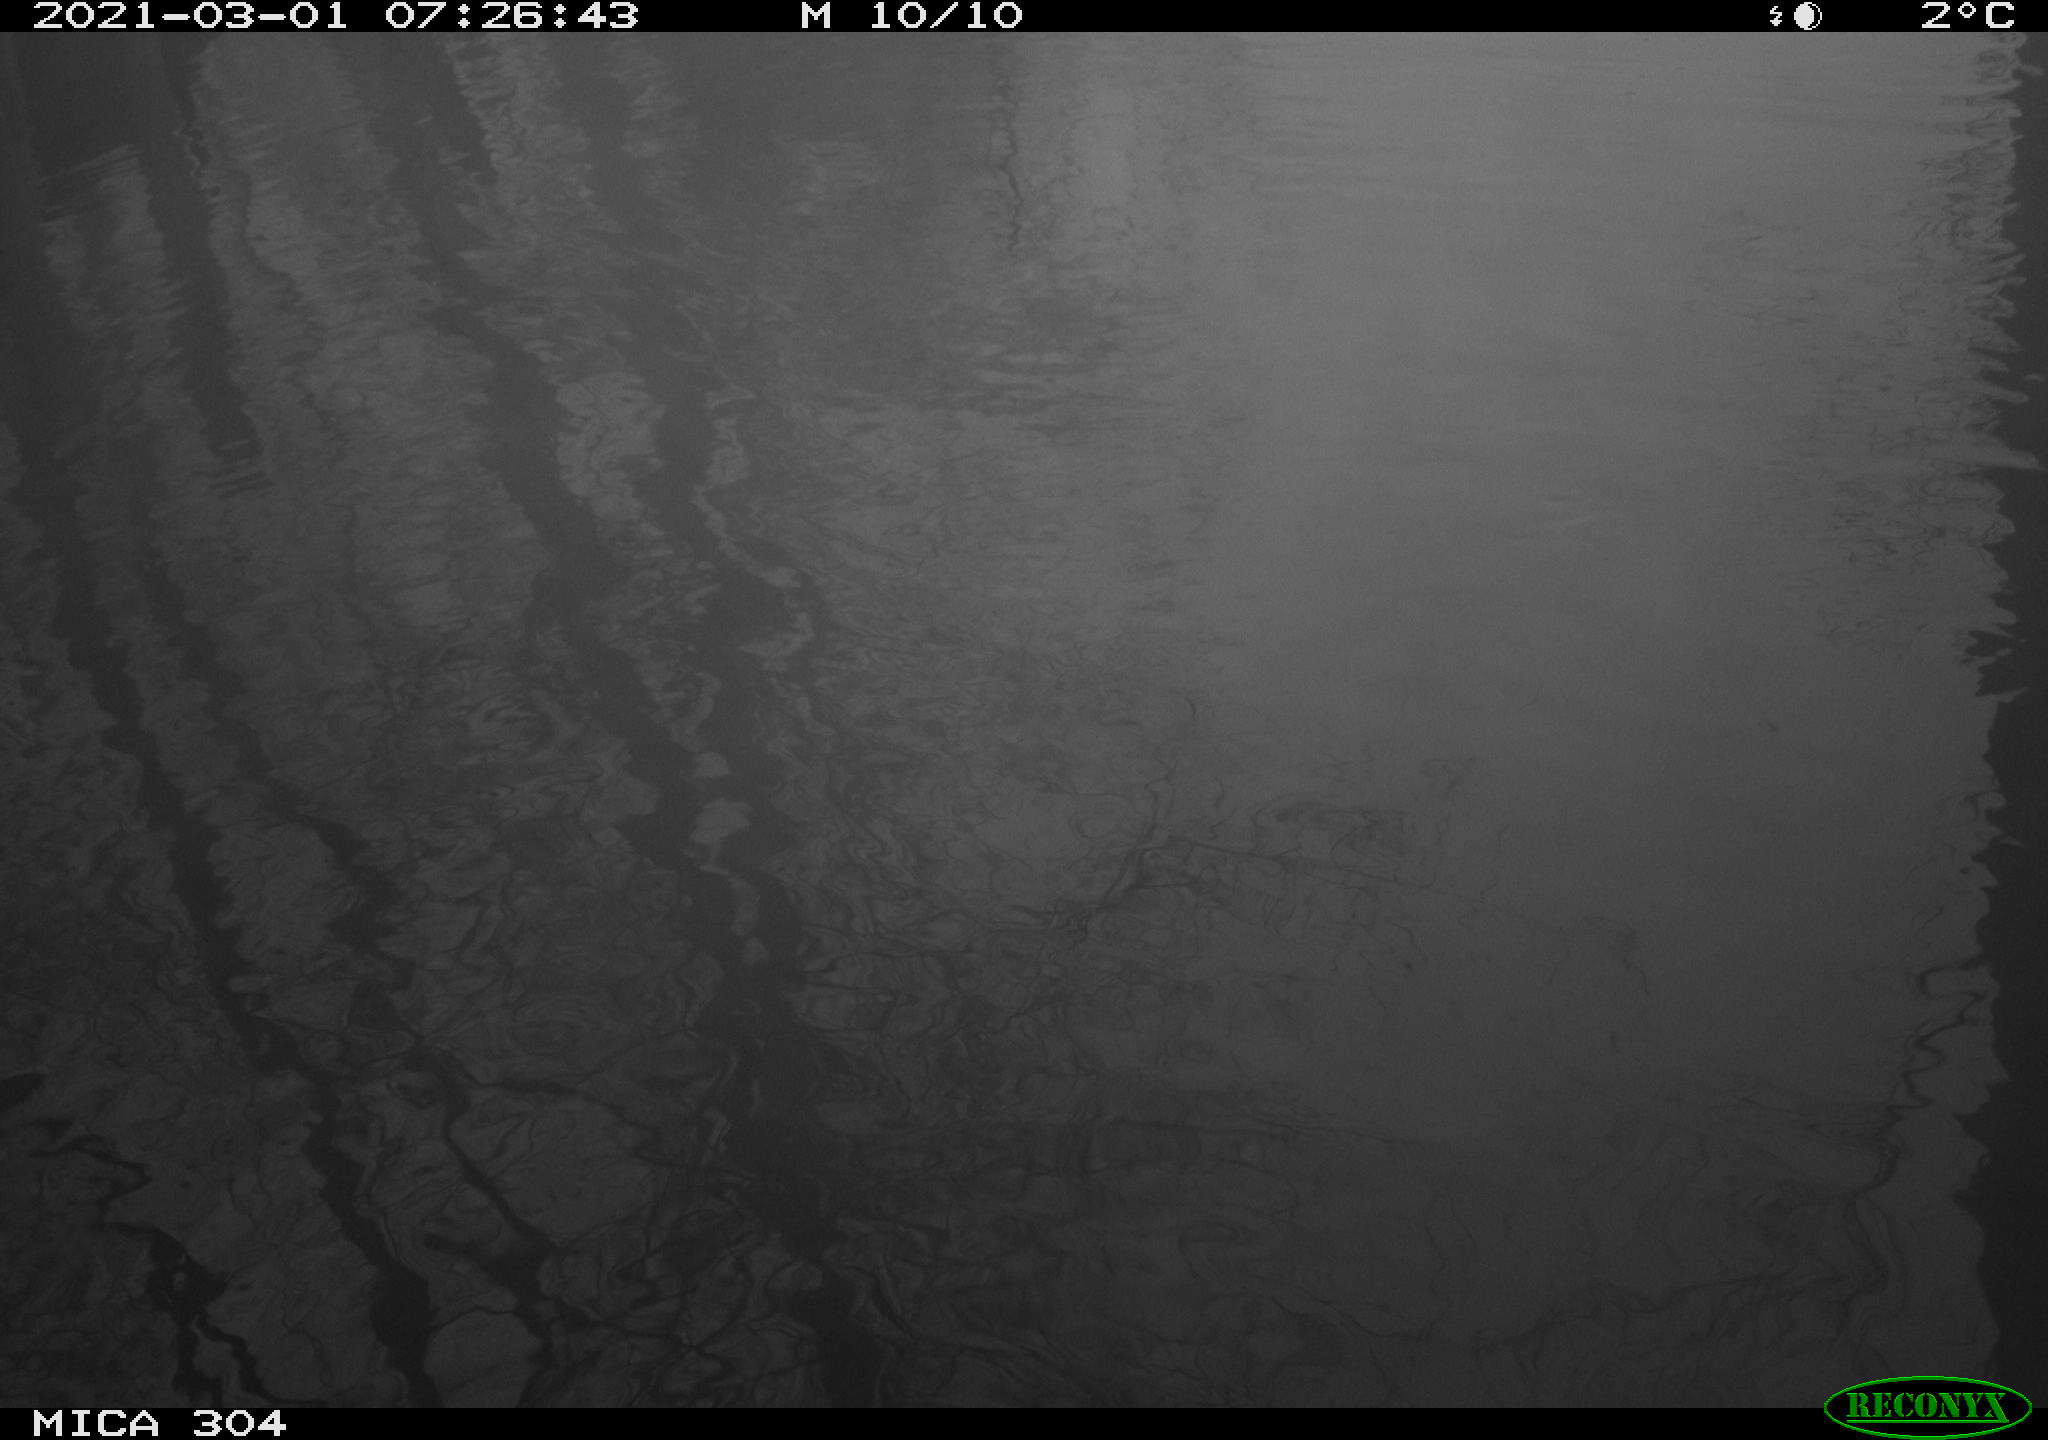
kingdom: Animalia
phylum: Chordata
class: Aves
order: Gruiformes
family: Rallidae
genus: Fulica
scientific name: Fulica atra
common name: Eurasian coot
